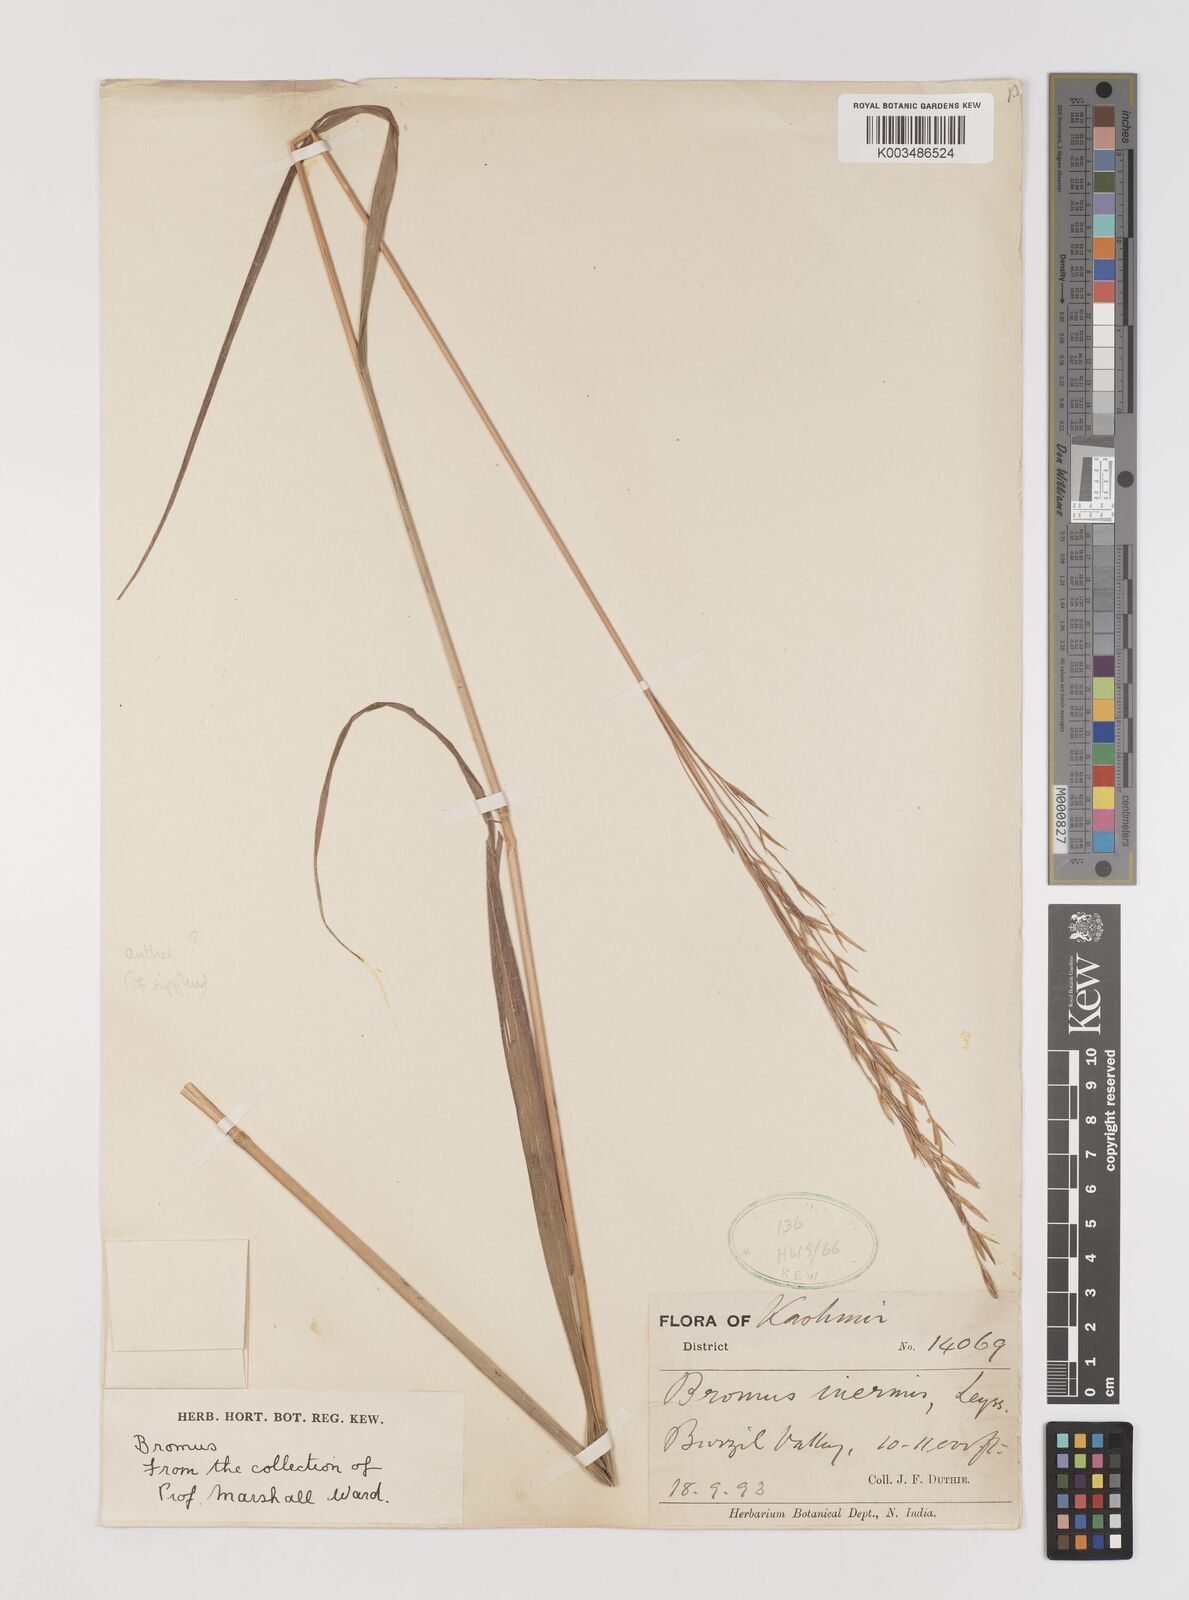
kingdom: Plantae
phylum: Tracheophyta
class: Liliopsida
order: Poales
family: Poaceae
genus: Bromus
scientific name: Bromus inermis
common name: Smooth brome
